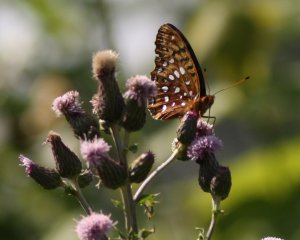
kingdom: Animalia
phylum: Arthropoda
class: Insecta
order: Lepidoptera
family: Nymphalidae
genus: Speyeria
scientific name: Speyeria cybele
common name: Great Spangled Fritillary
